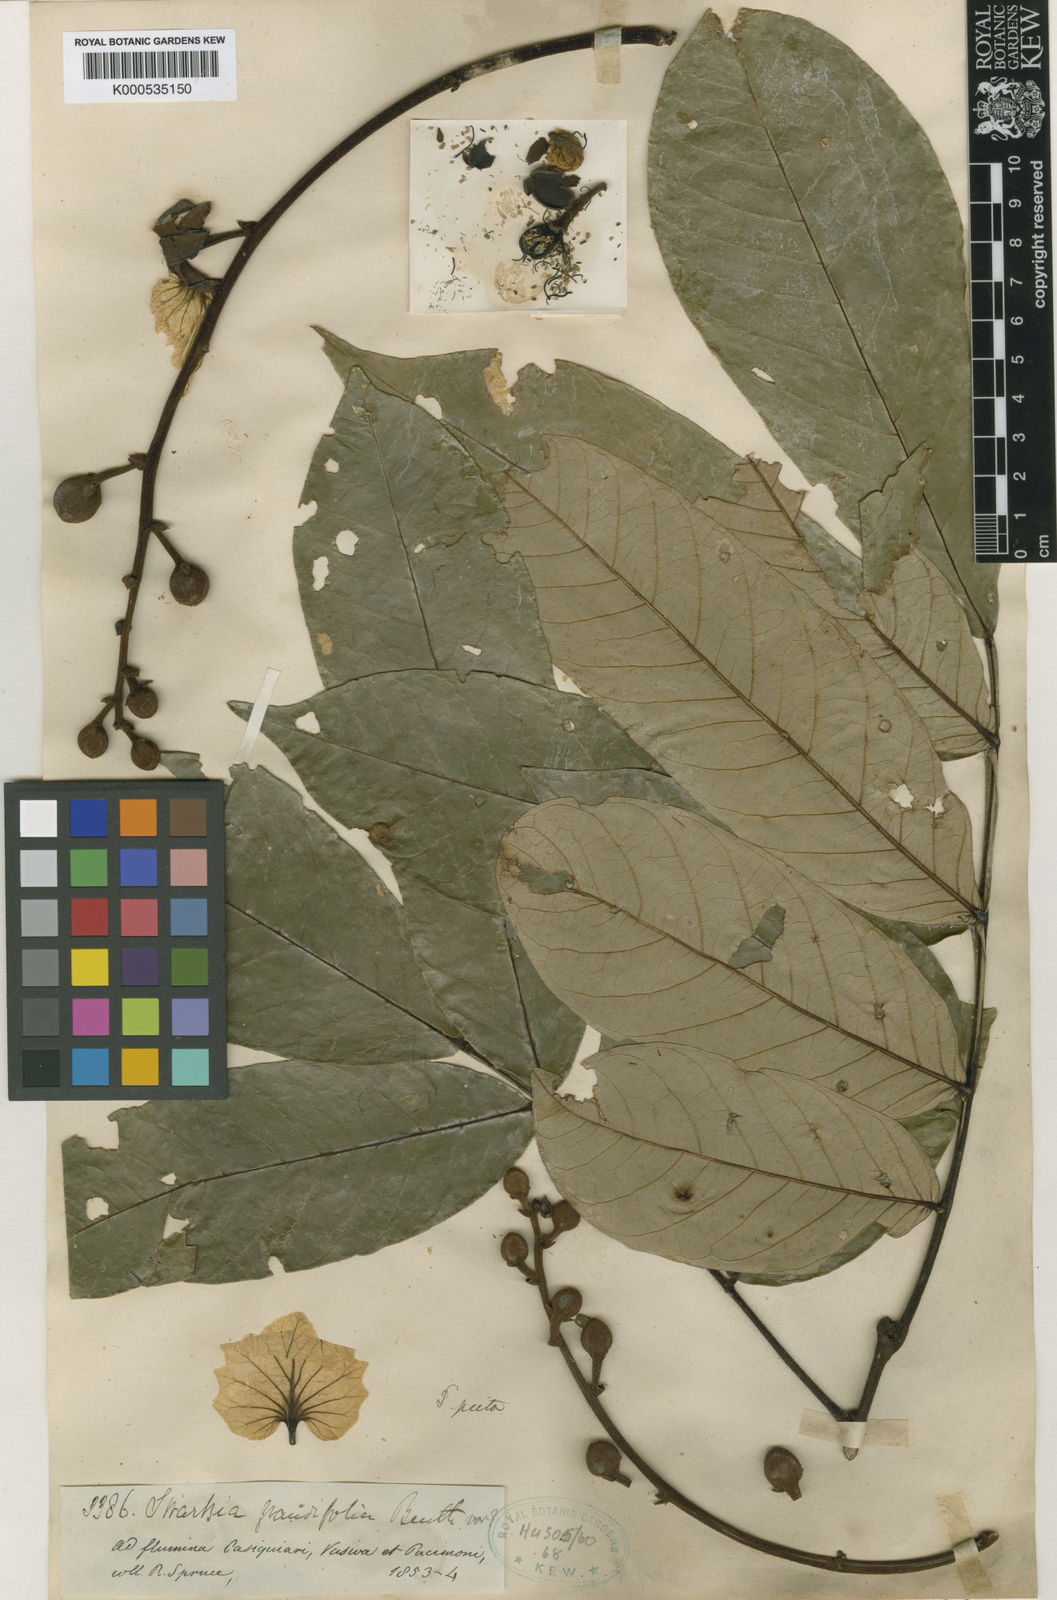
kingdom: Plantae
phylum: Tracheophyta
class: Magnoliopsida
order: Fabales
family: Fabaceae
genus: Swartzia
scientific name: Swartzia picta
